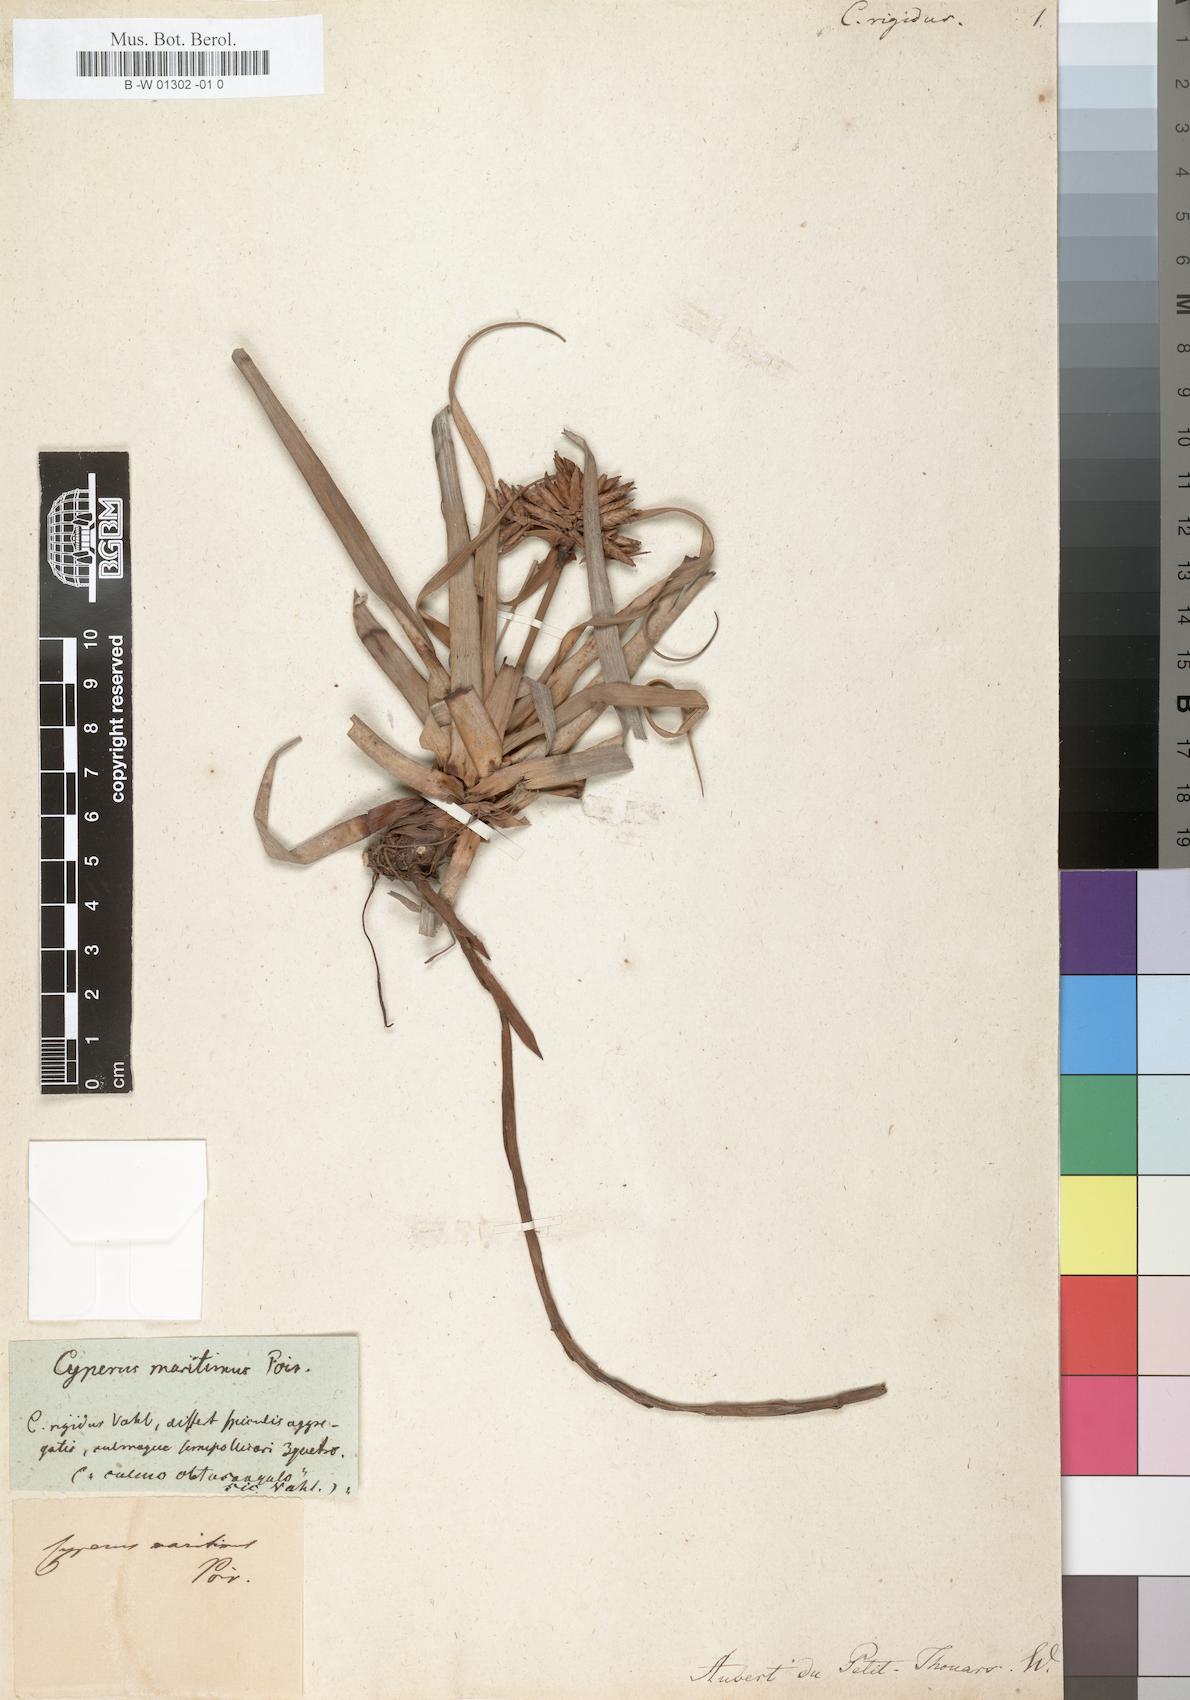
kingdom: Plantae
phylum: Tracheophyta
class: Liliopsida
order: Poales
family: Cyperaceae
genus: Cyperus
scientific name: Cyperus niveus
